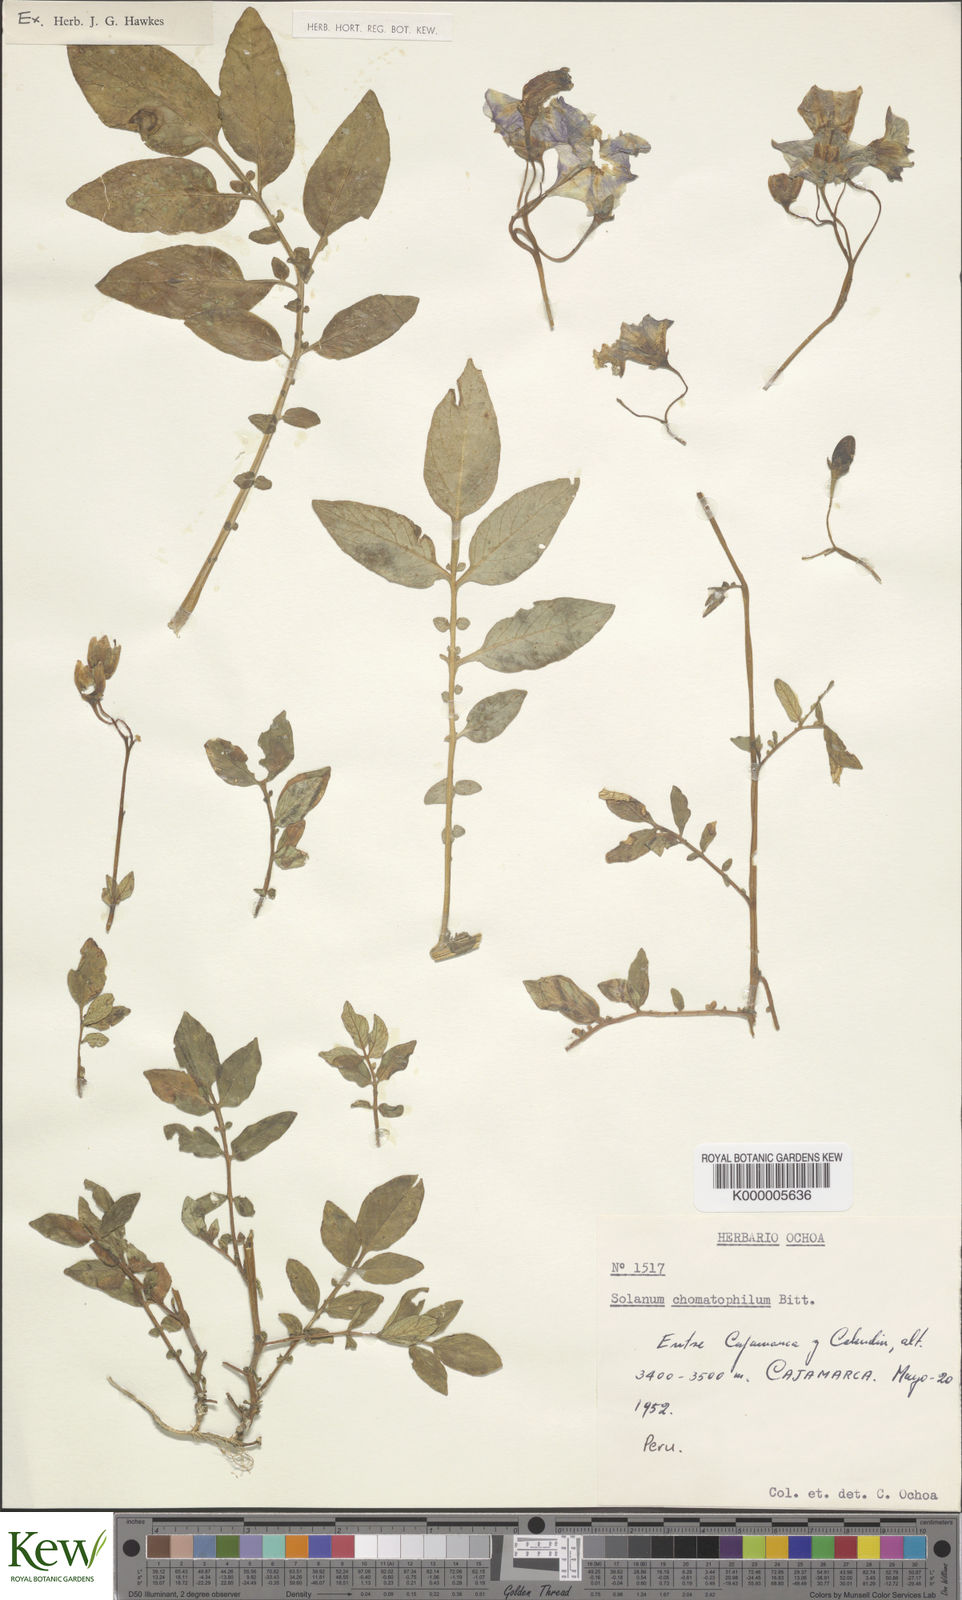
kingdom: Plantae
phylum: Tracheophyta
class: Magnoliopsida
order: Solanales
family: Solanaceae
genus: Solanum
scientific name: Solanum chomatophilum
